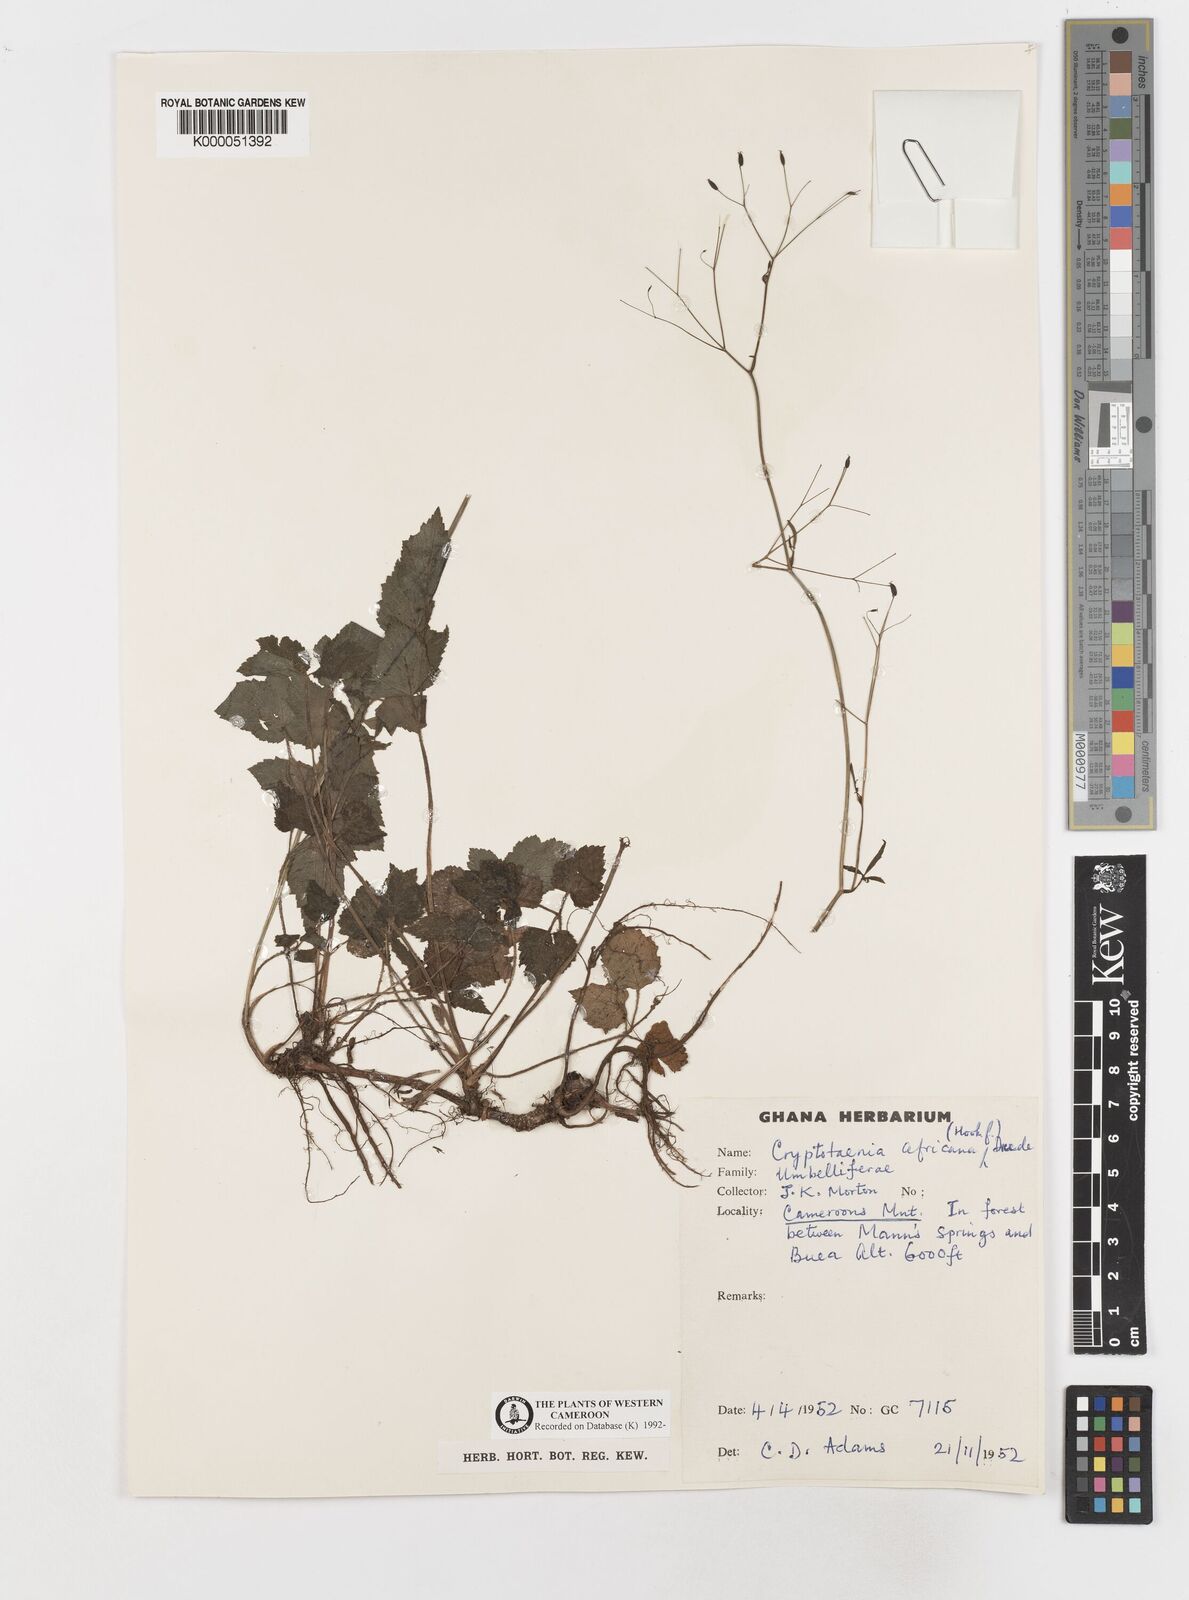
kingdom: Plantae
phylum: Tracheophyta
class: Magnoliopsida
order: Apiales
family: Apiaceae
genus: Cryptotaenia
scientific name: Cryptotaenia africana
